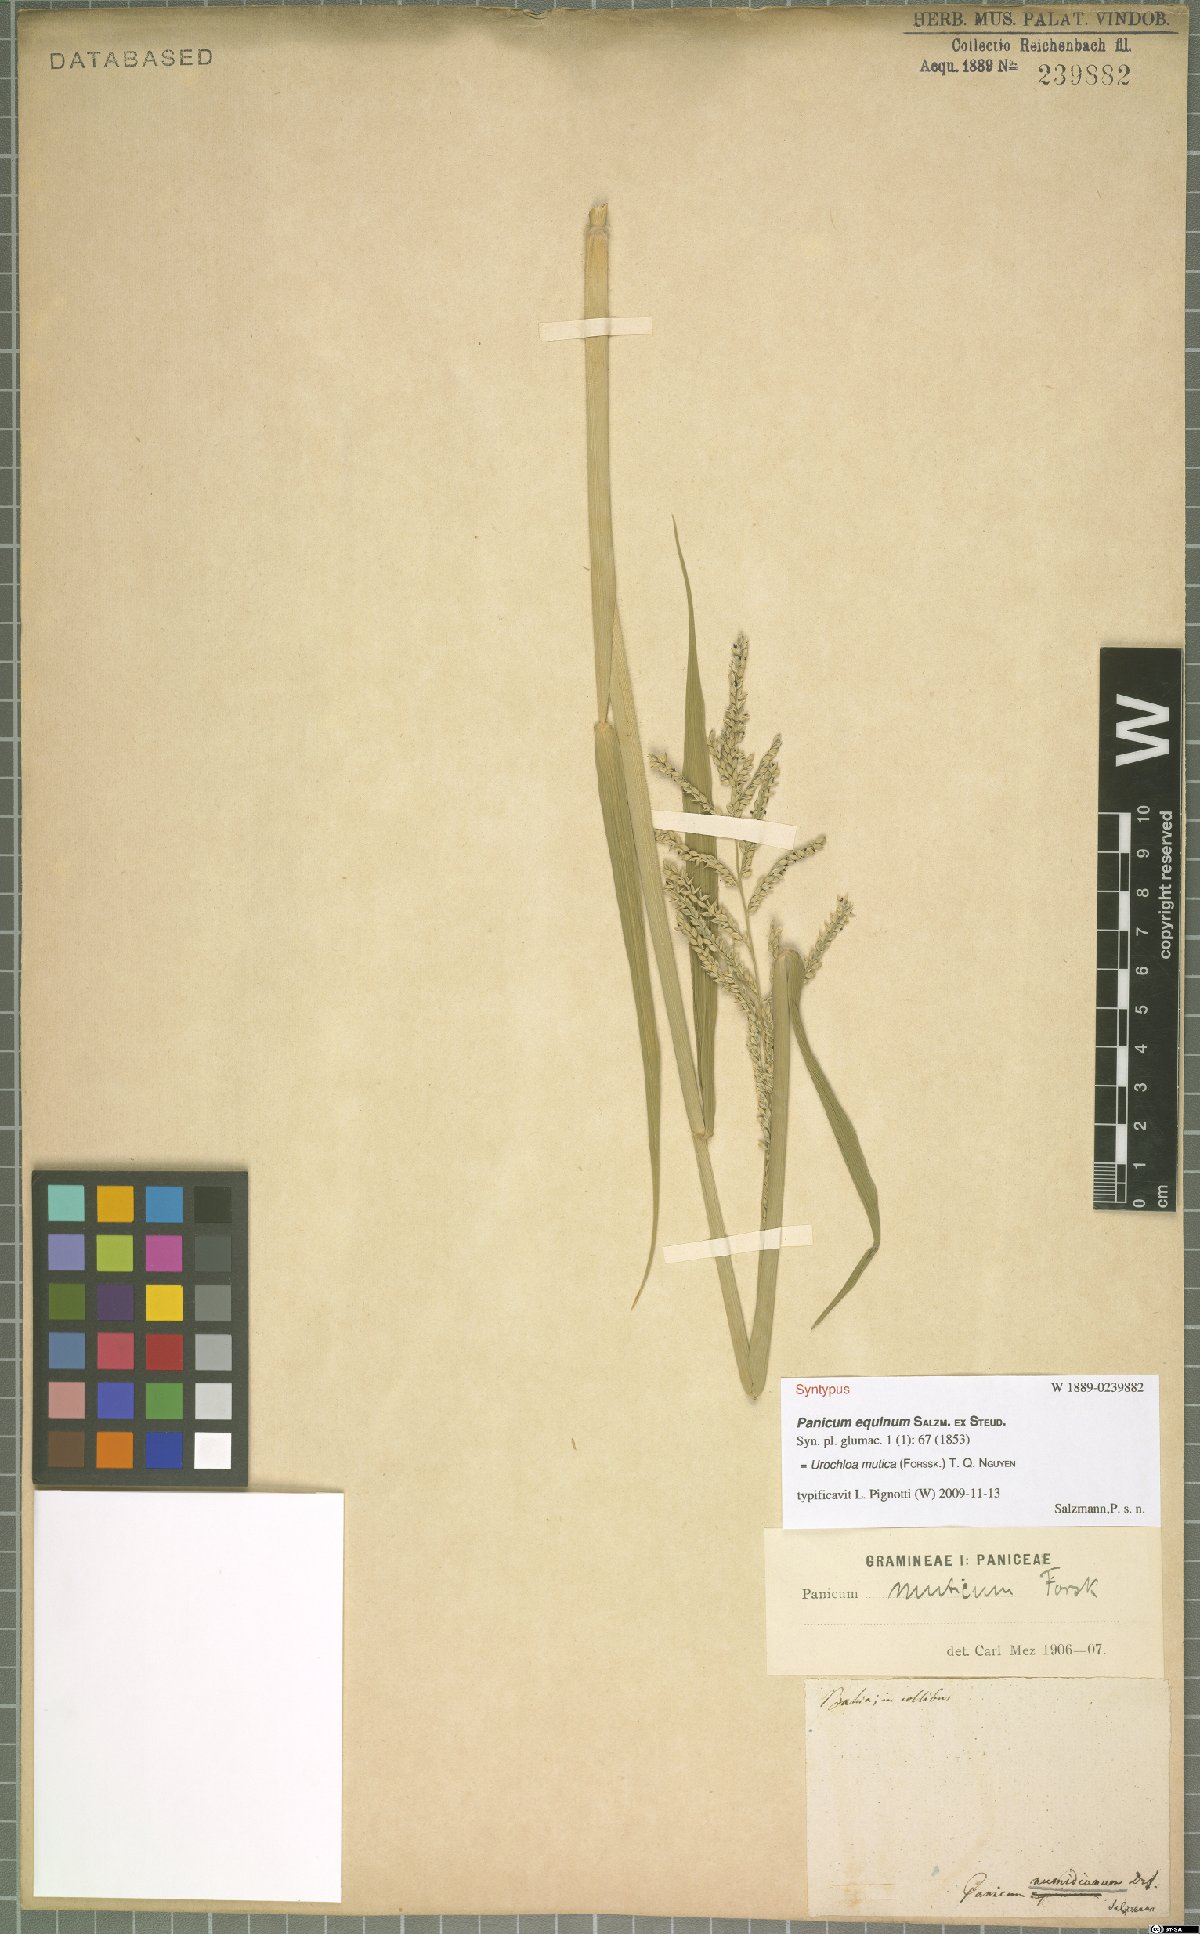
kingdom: Plantae
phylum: Tracheophyta
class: Liliopsida
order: Poales
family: Poaceae
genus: Urochloa
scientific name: Urochloa mutica
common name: Para grass
